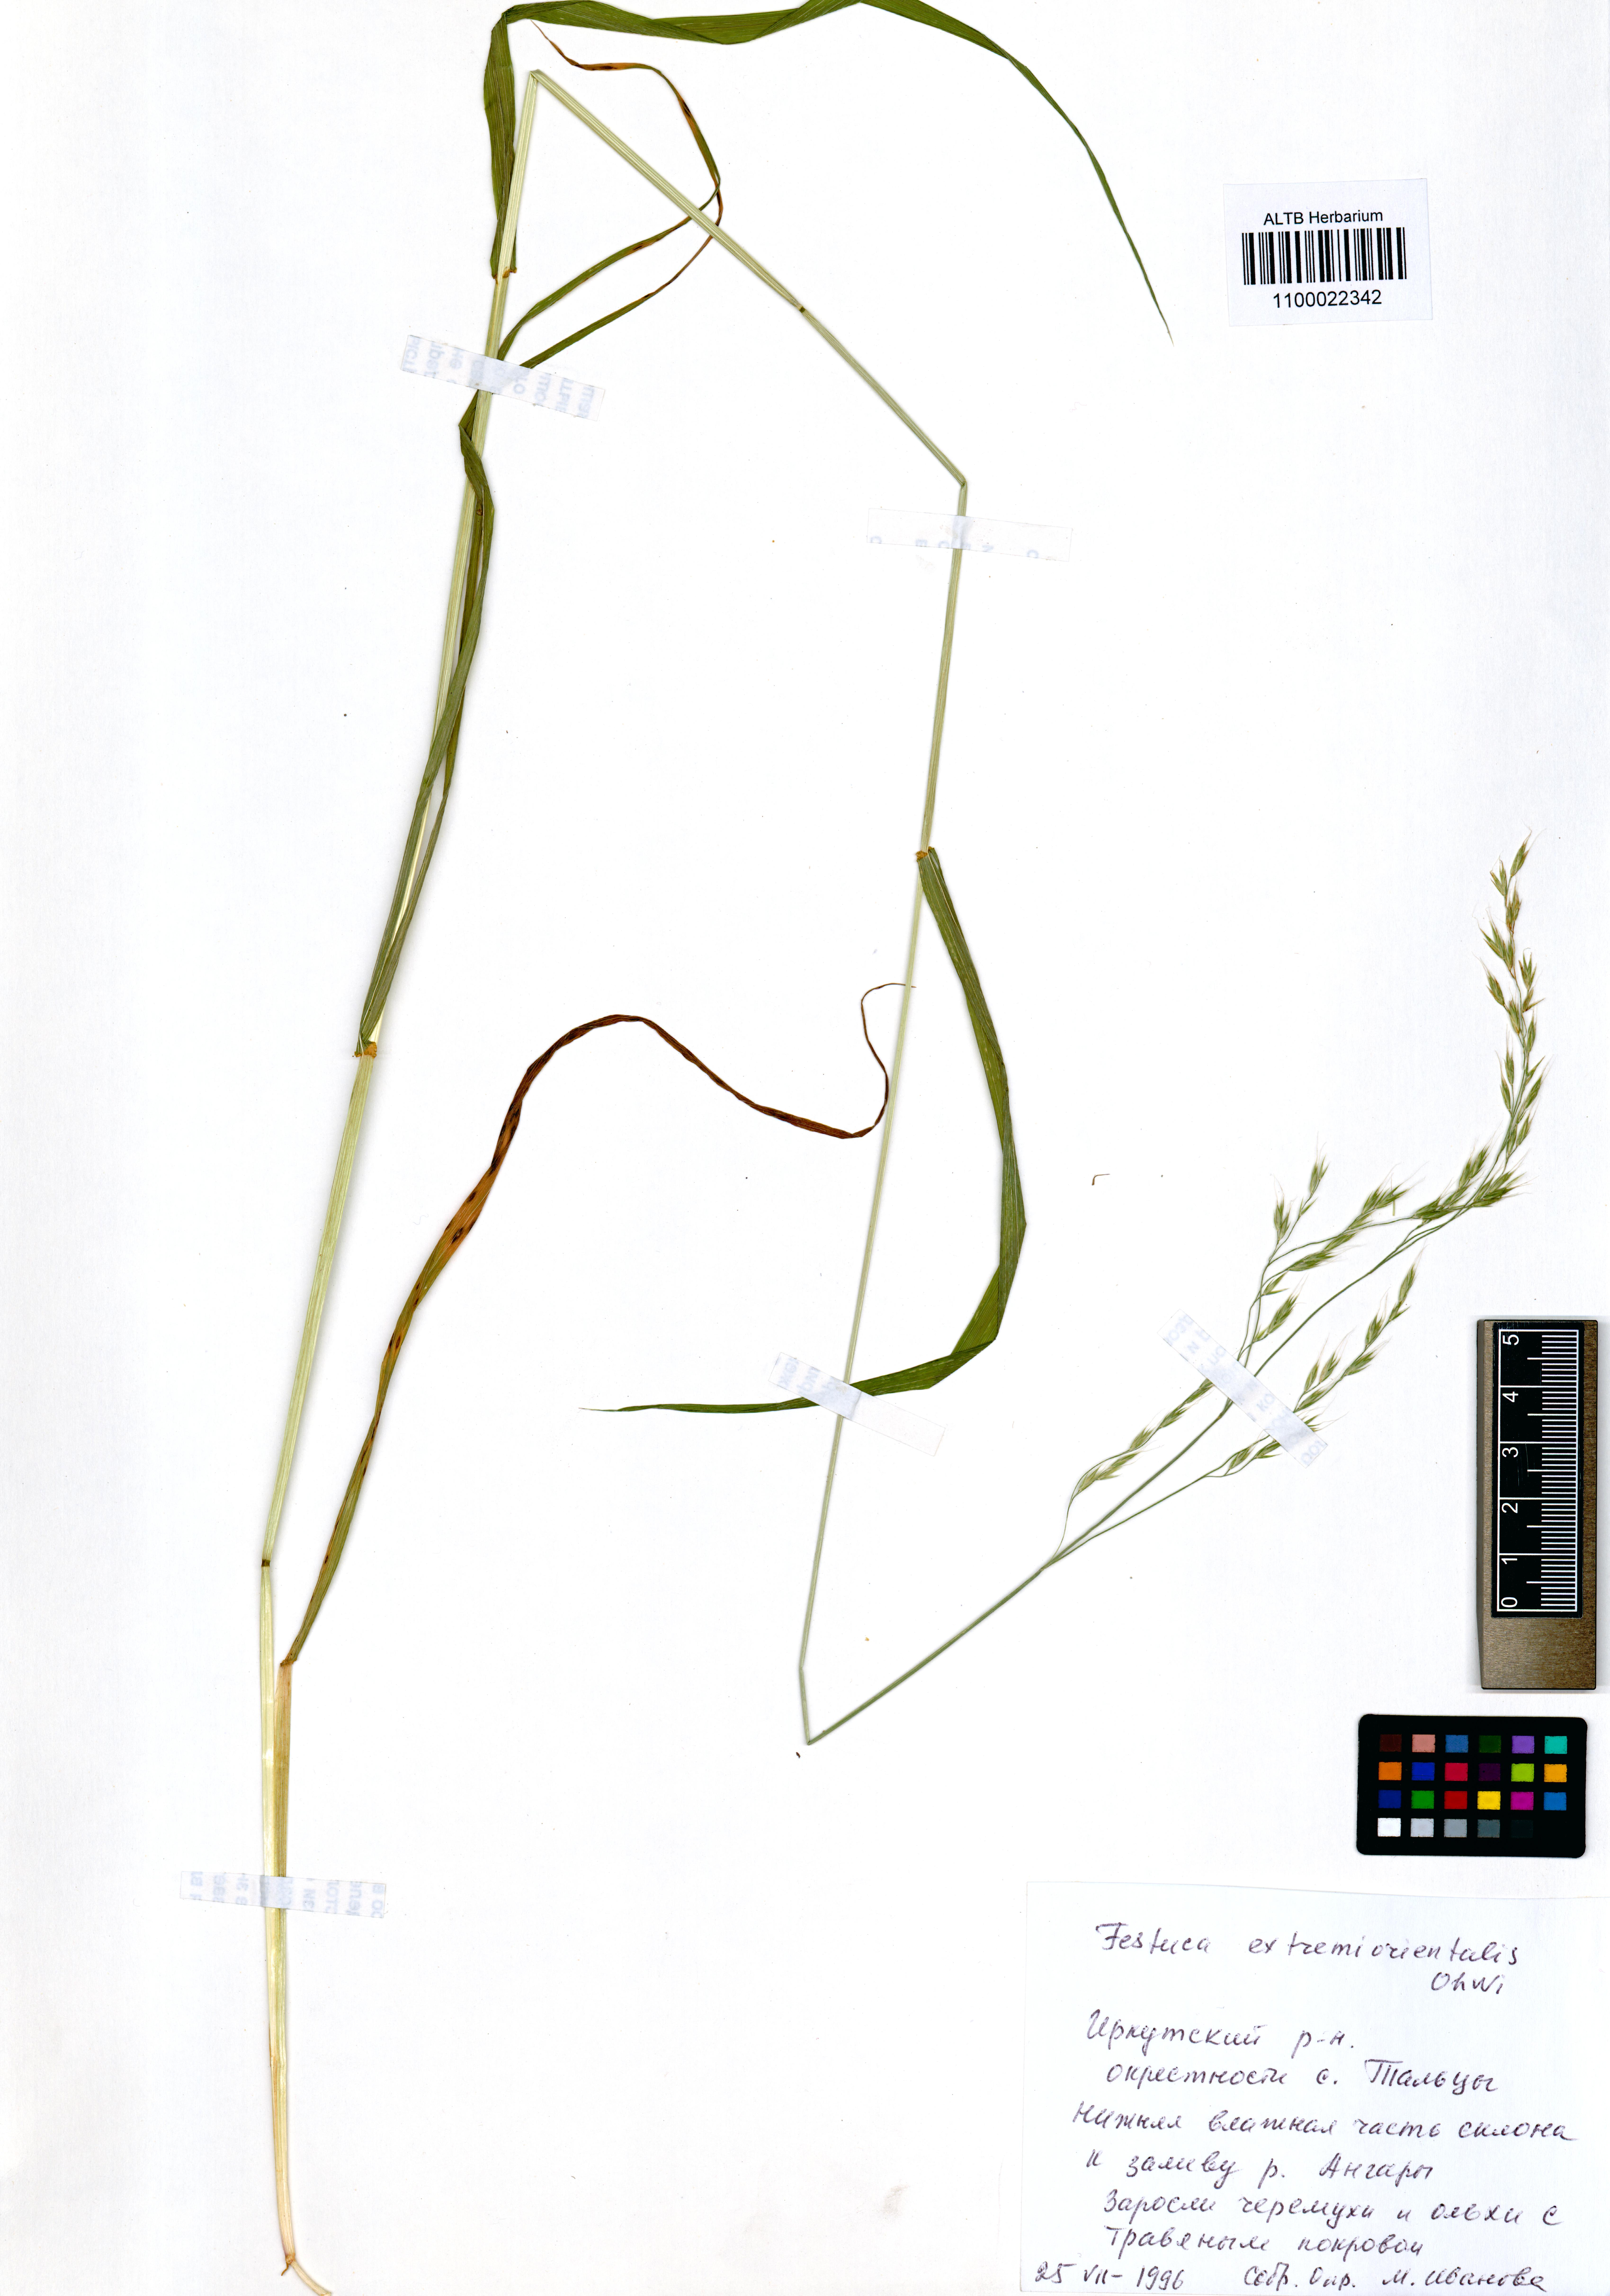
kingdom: Plantae
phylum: Tracheophyta
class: Liliopsida
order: Poales
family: Poaceae
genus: Festuca
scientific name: Festuca extremiorientalis
